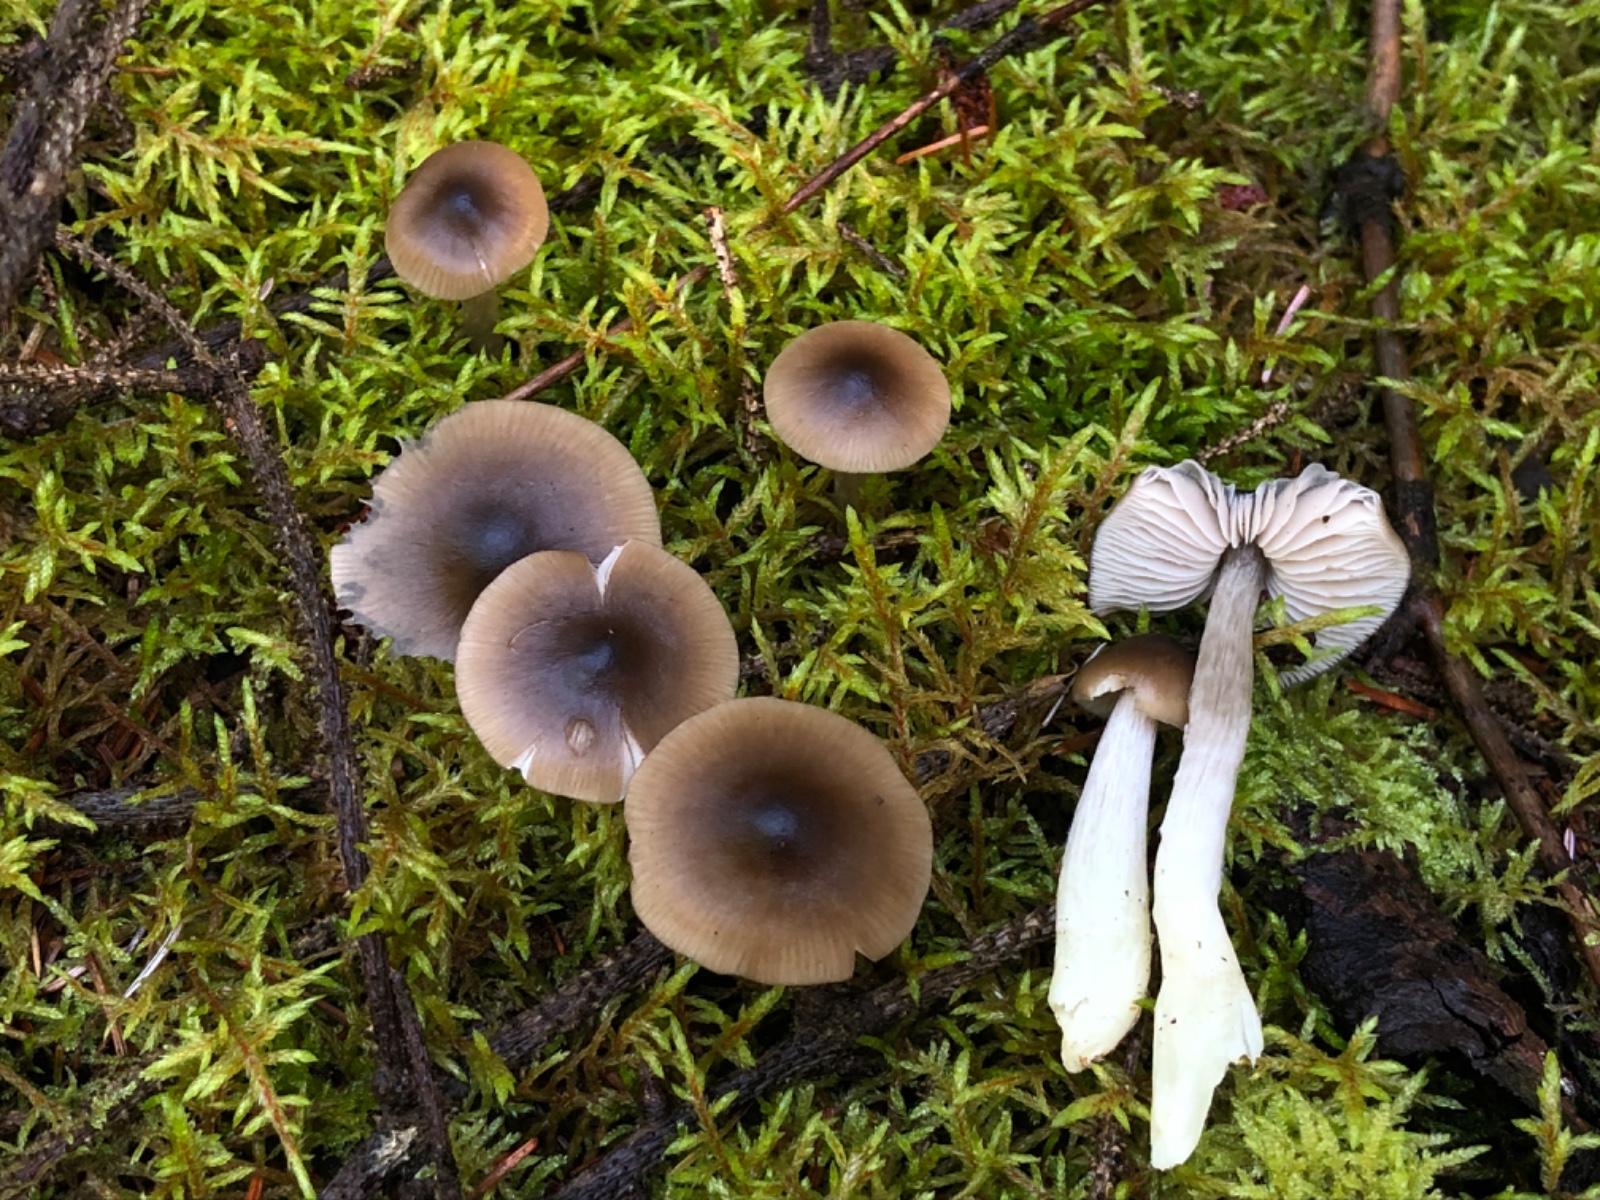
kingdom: Fungi
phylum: Basidiomycota
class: Agaricomycetes
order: Agaricales
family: Entolomataceae
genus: Entocybe
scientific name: Entocybe turbida
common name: plantage-rødblad
